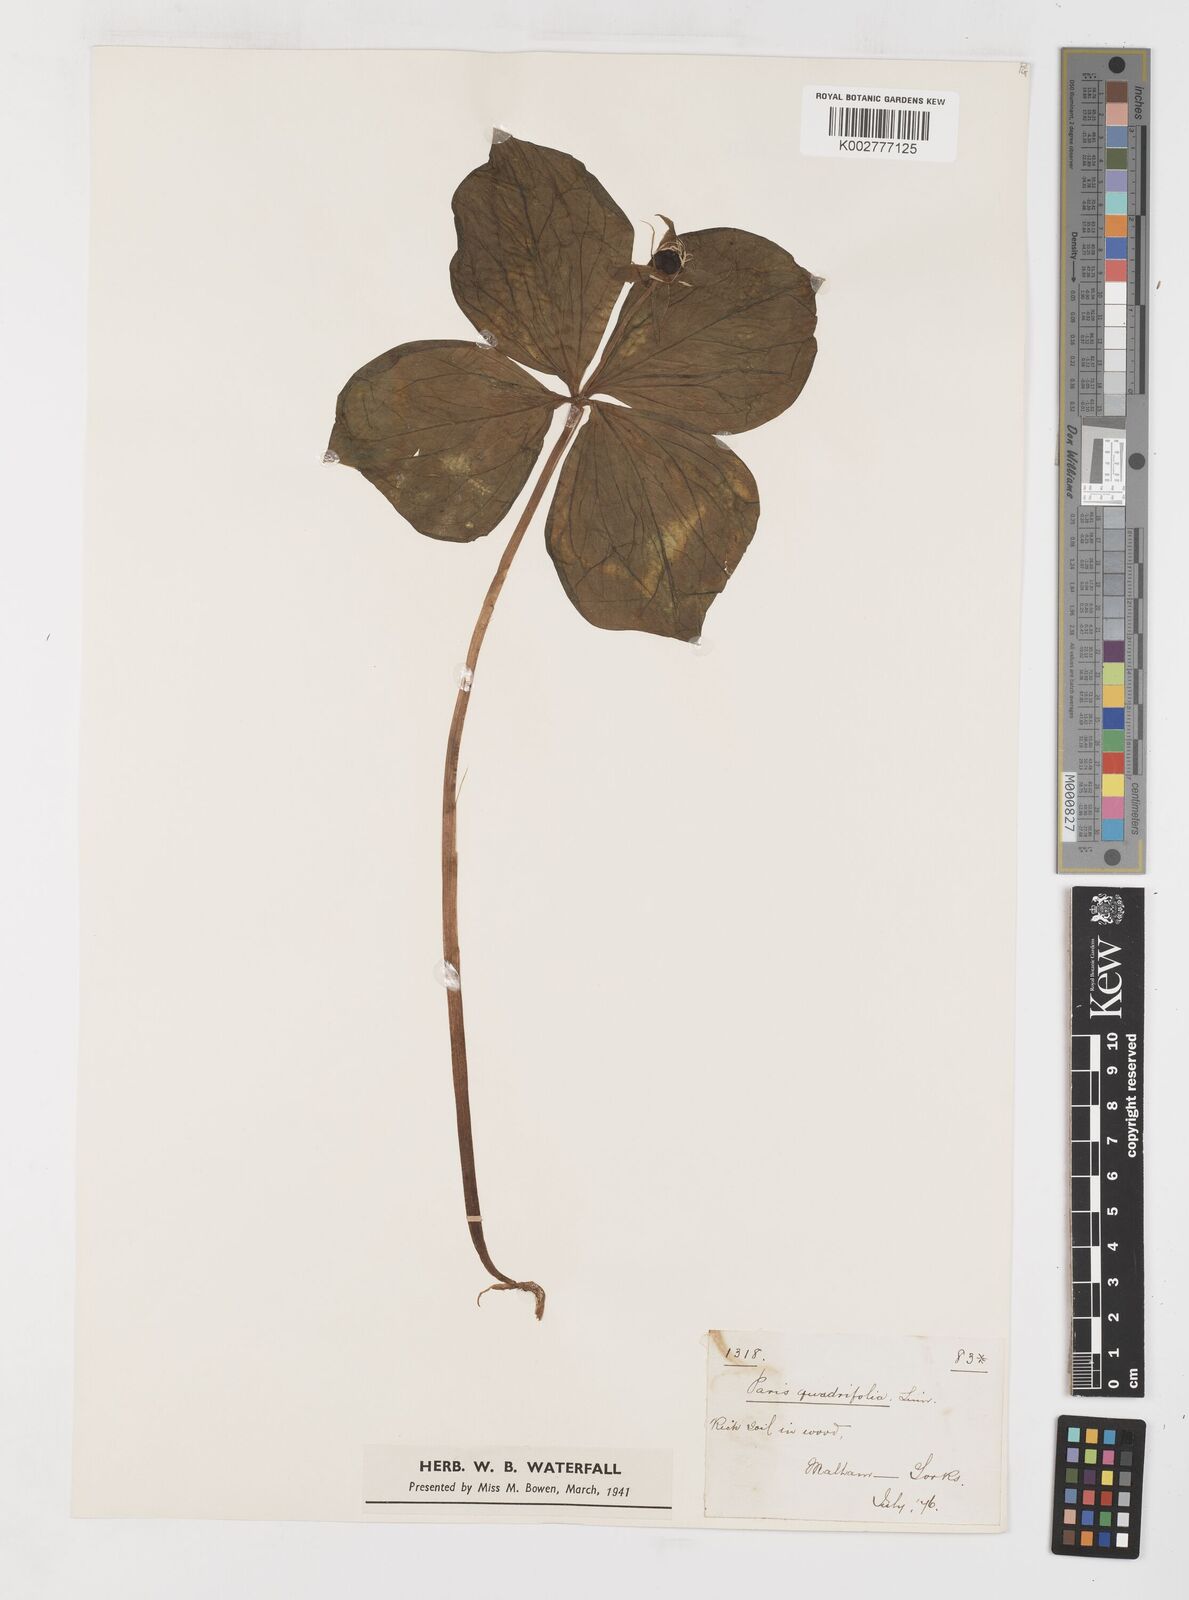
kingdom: Plantae
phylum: Tracheophyta
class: Liliopsida
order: Liliales
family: Melanthiaceae
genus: Paris
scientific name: Paris quadrifolia
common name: Herb-paris
